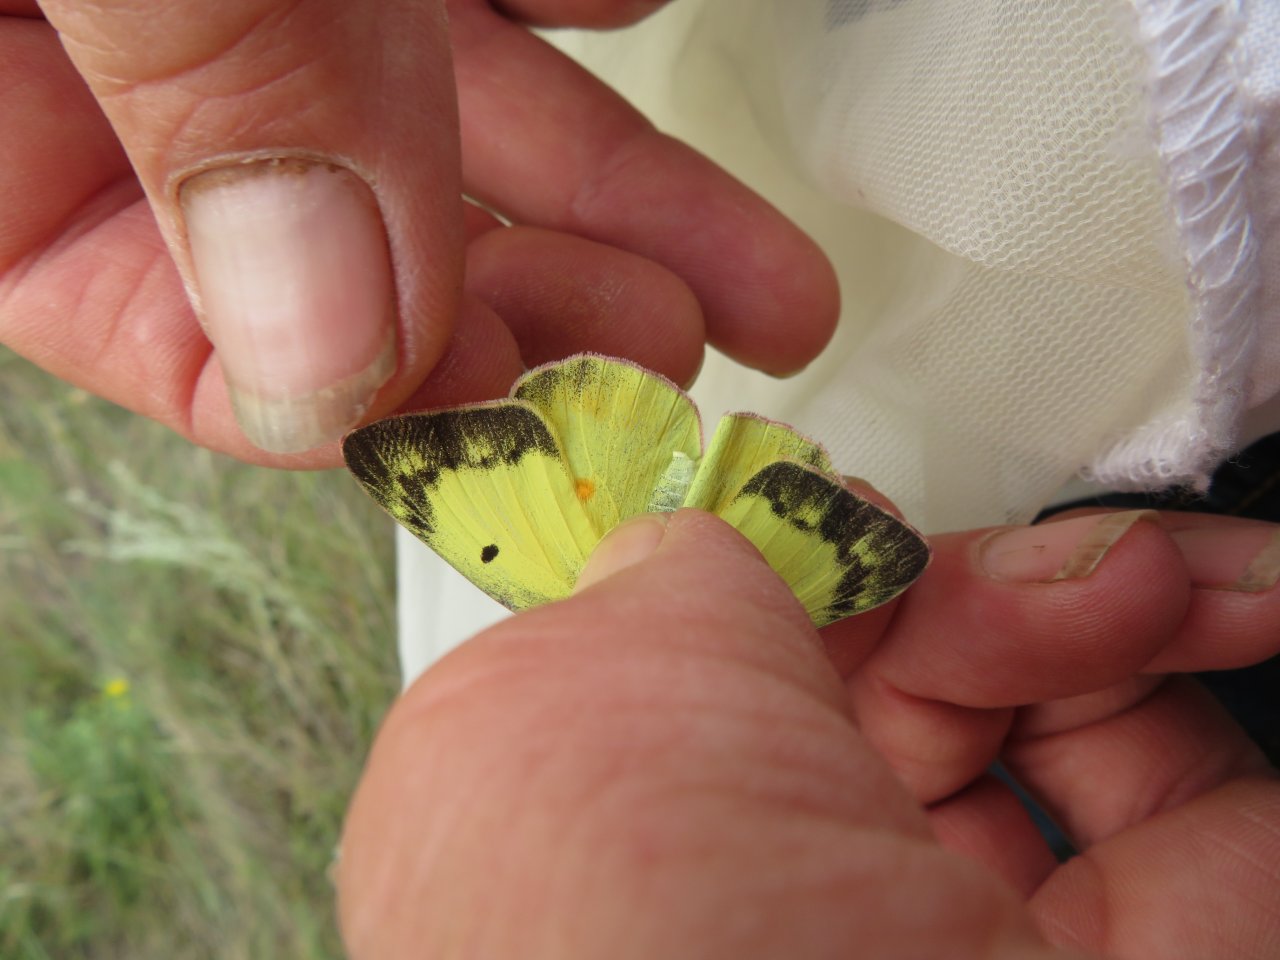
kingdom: Animalia
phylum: Arthropoda
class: Insecta
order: Lepidoptera
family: Pieridae
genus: Colias
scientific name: Colias eurytheme
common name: Orange Sulphur
